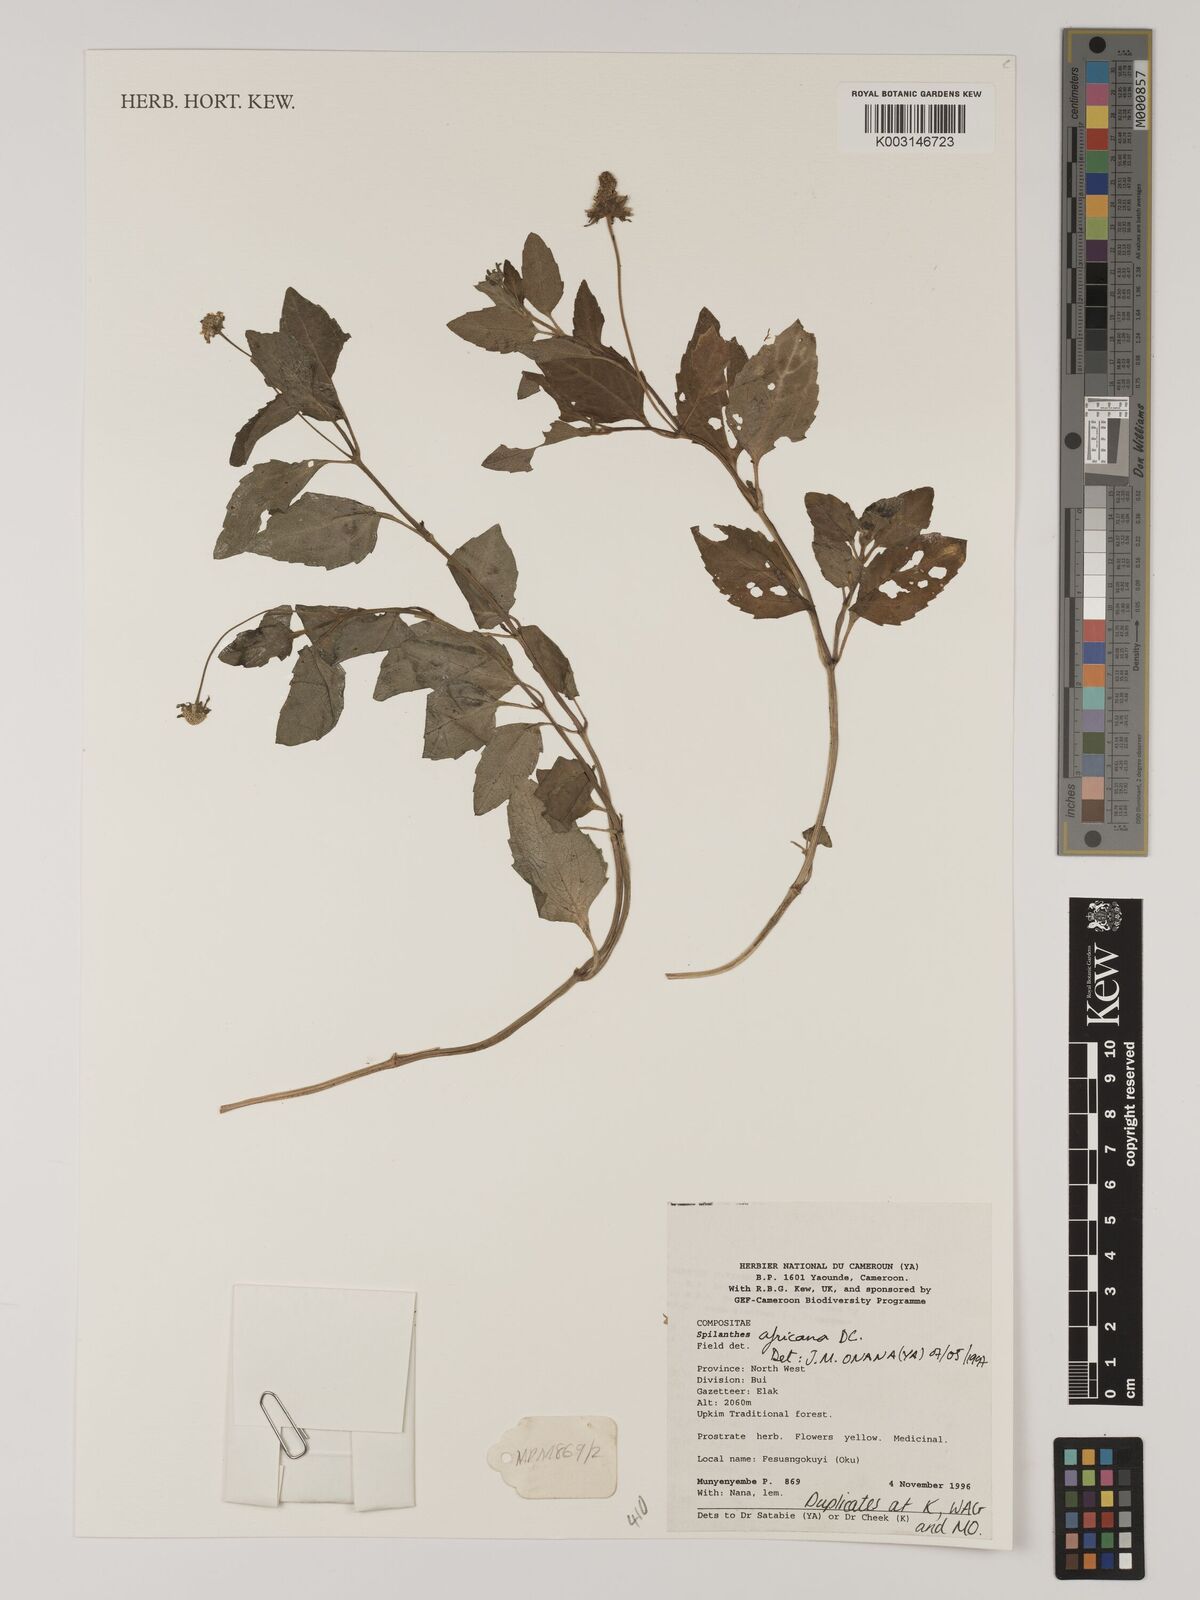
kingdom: Plantae
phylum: Tracheophyta
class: Magnoliopsida
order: Asterales
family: Asteraceae
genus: Acmella
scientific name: Acmella caulirhiza
